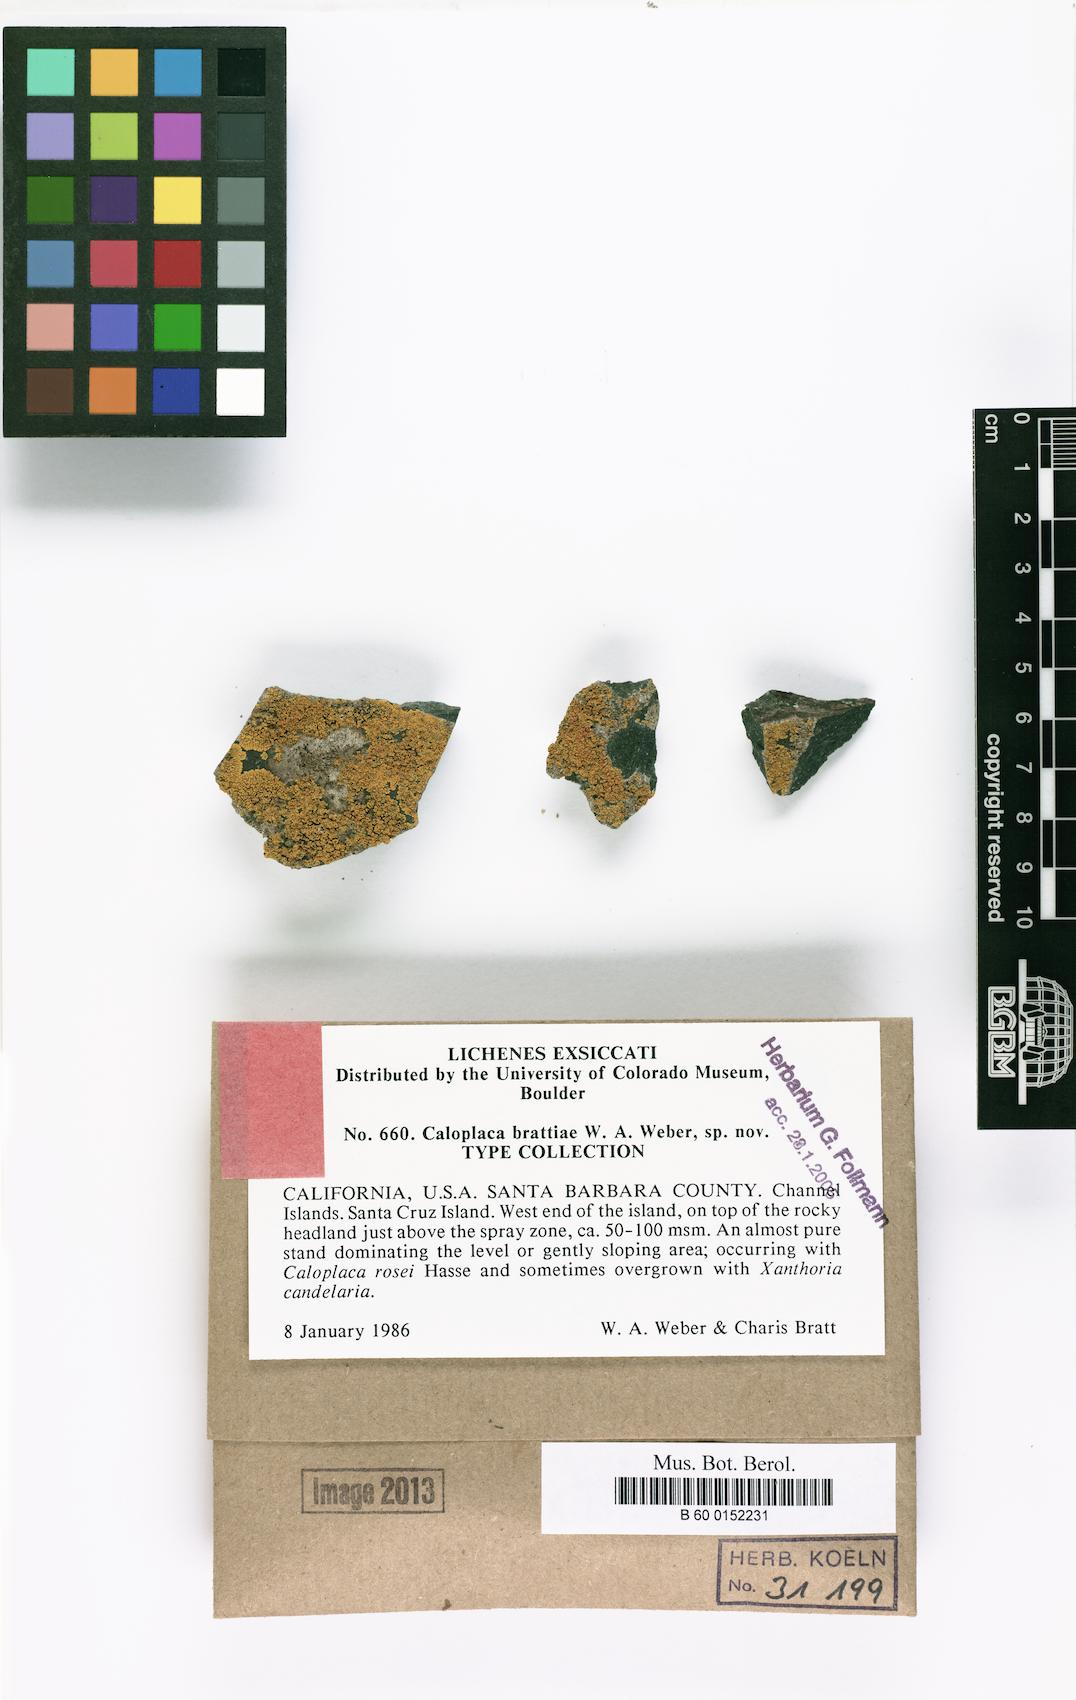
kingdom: Fungi
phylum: Ascomycota
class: Lecanoromycetes
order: Teloschistales
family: Teloschistaceae
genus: Polycauliona
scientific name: Polycauliona brattiae
